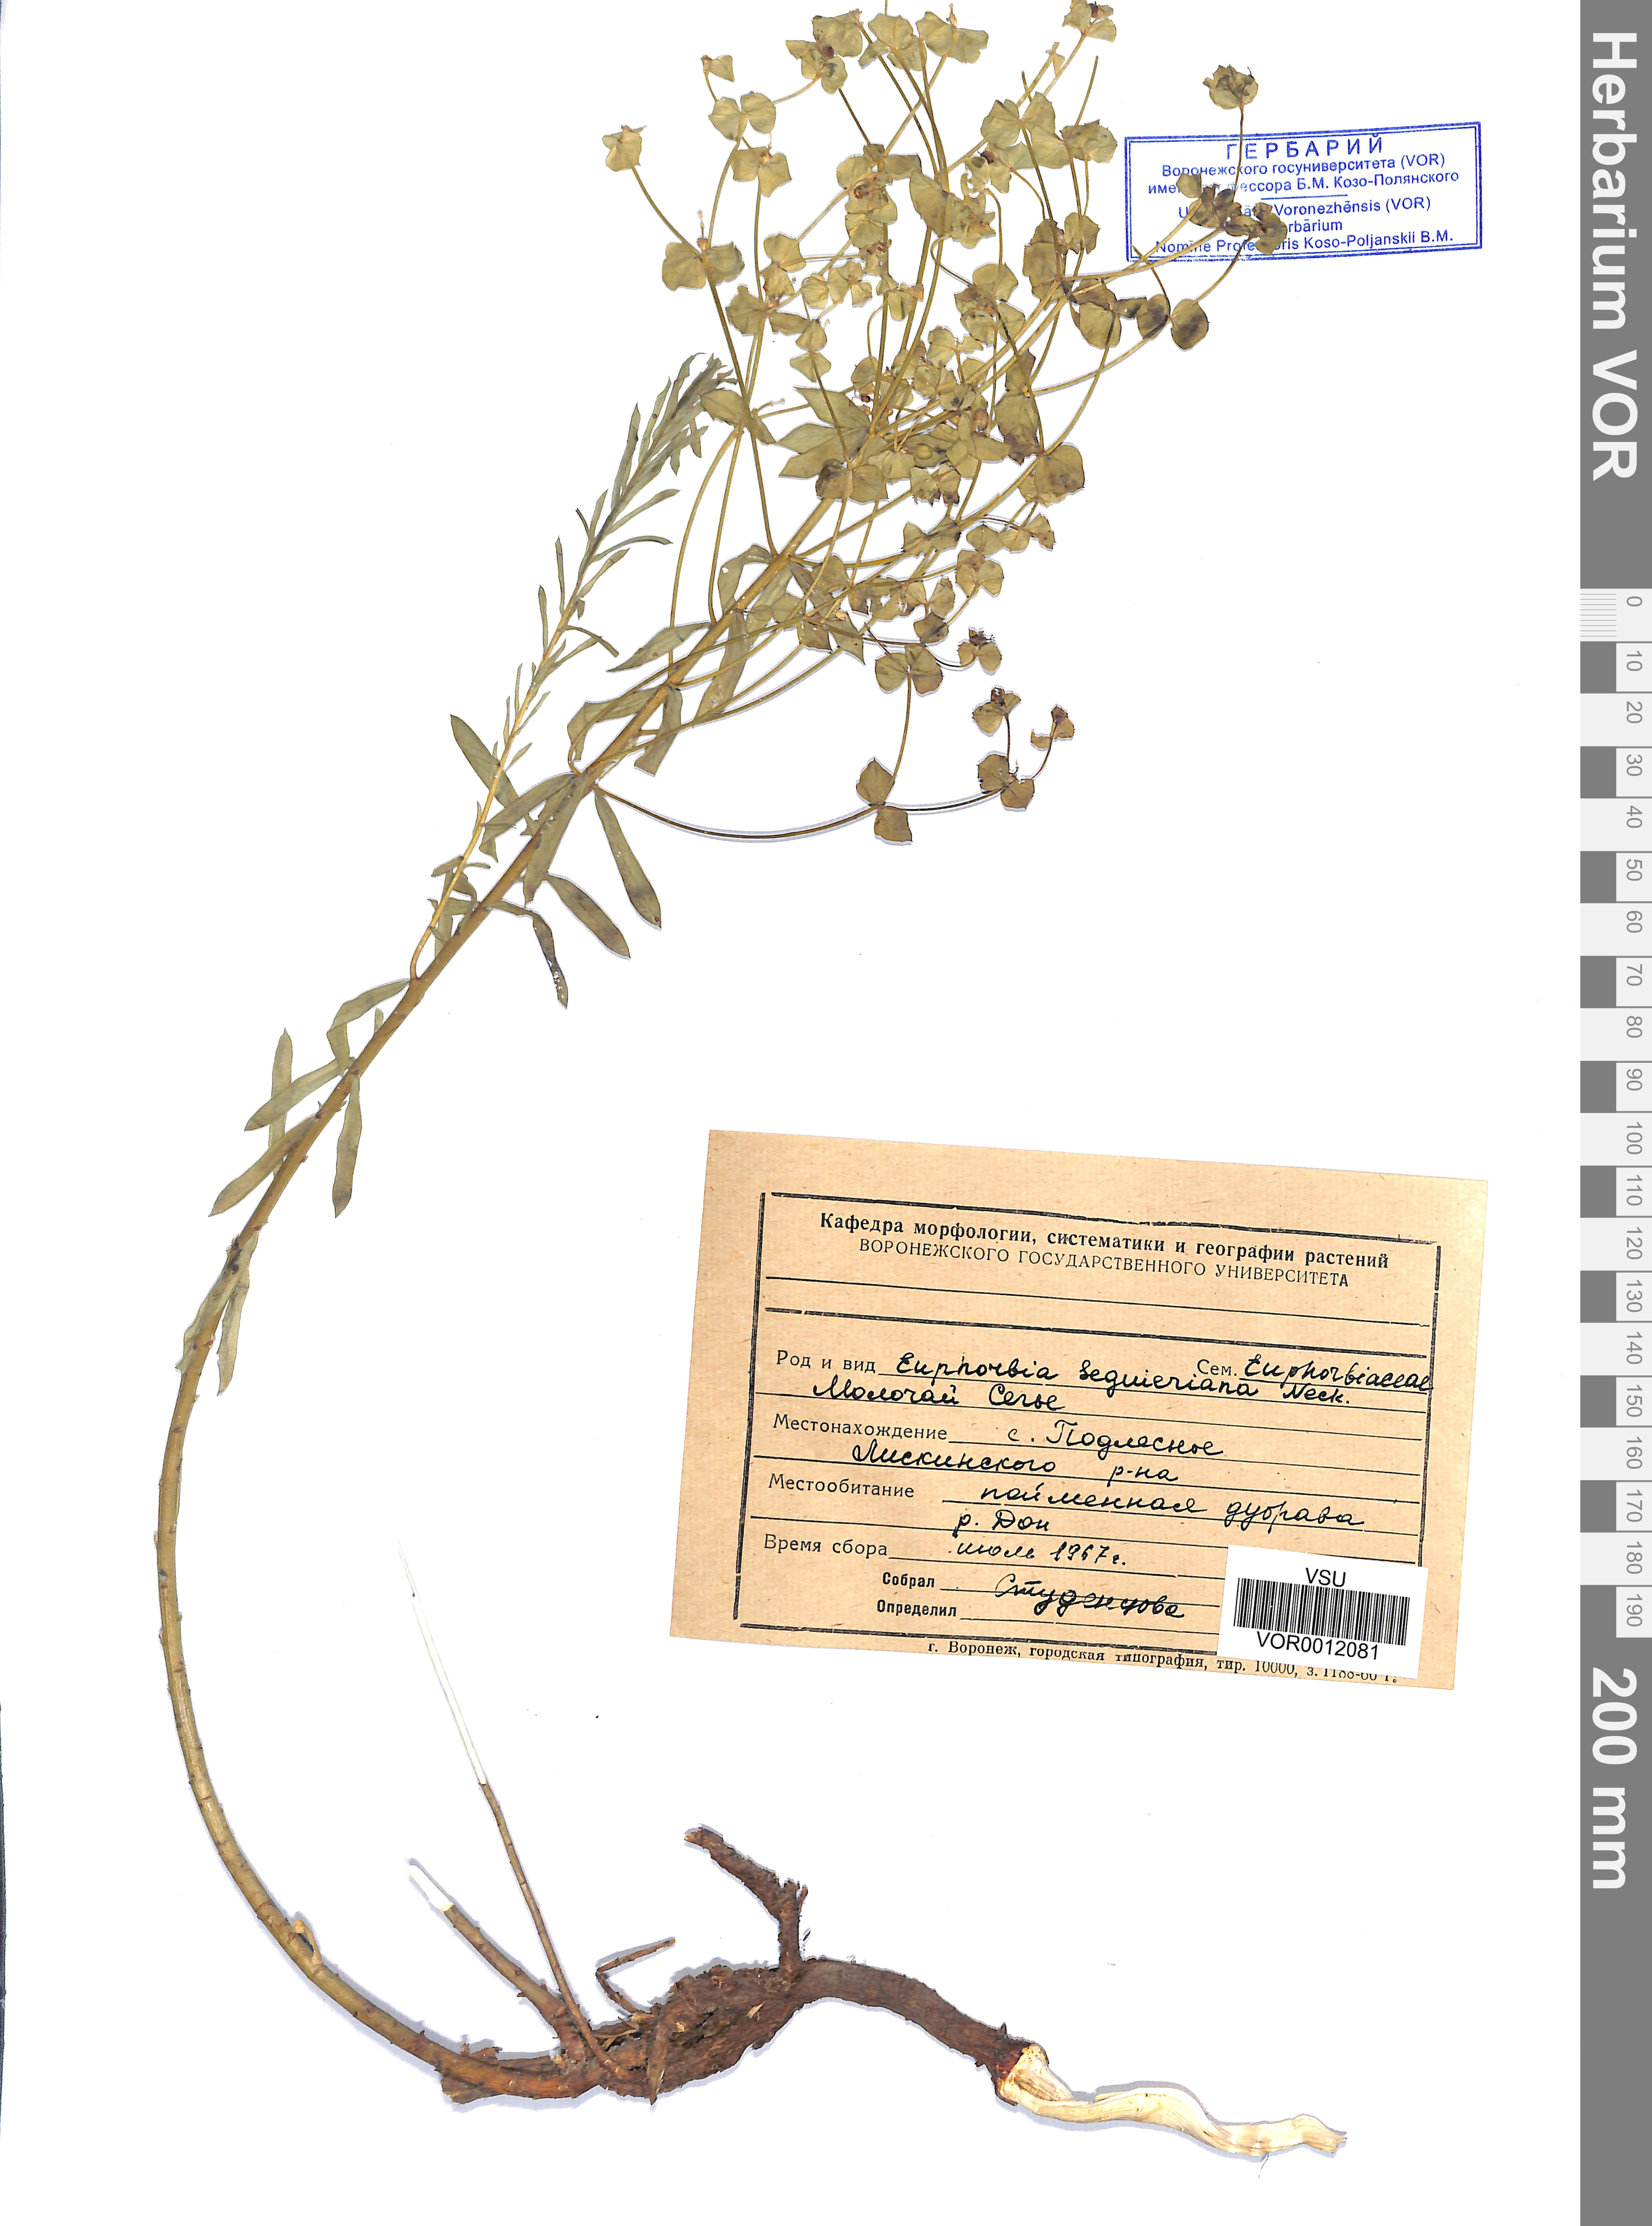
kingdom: Plantae
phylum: Tracheophyta
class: Magnoliopsida
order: Malpighiales
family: Euphorbiaceae
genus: Euphorbia
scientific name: Euphorbia seguieriana
